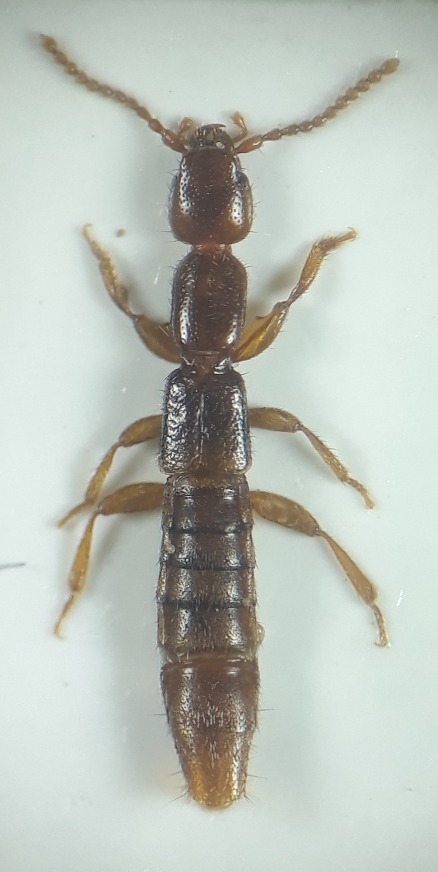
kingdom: Animalia
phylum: Arthropoda
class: Insecta
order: Coleoptera
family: Staphylinidae
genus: Lathrobium
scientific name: Lathrobium dilutum
